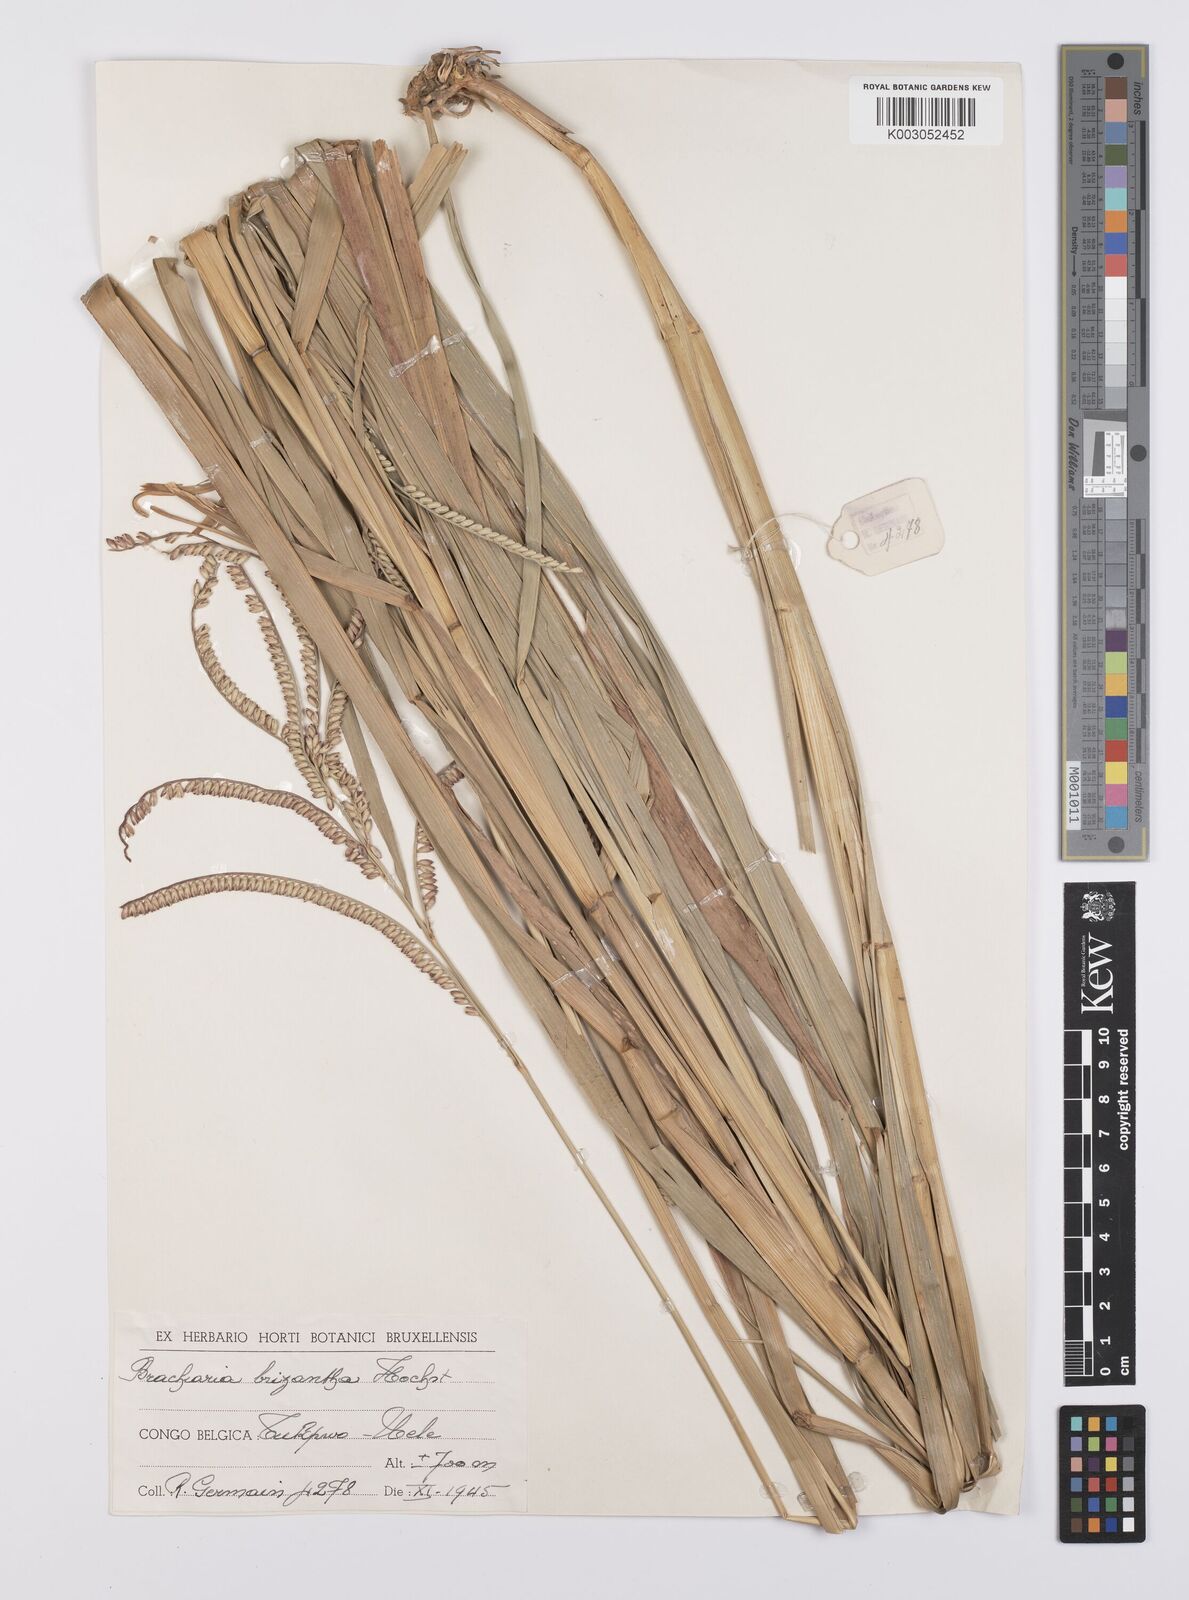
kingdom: Plantae
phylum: Tracheophyta
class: Liliopsida
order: Poales
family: Poaceae
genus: Urochloa
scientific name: Urochloa brizantha
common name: Palisade signalgrass
